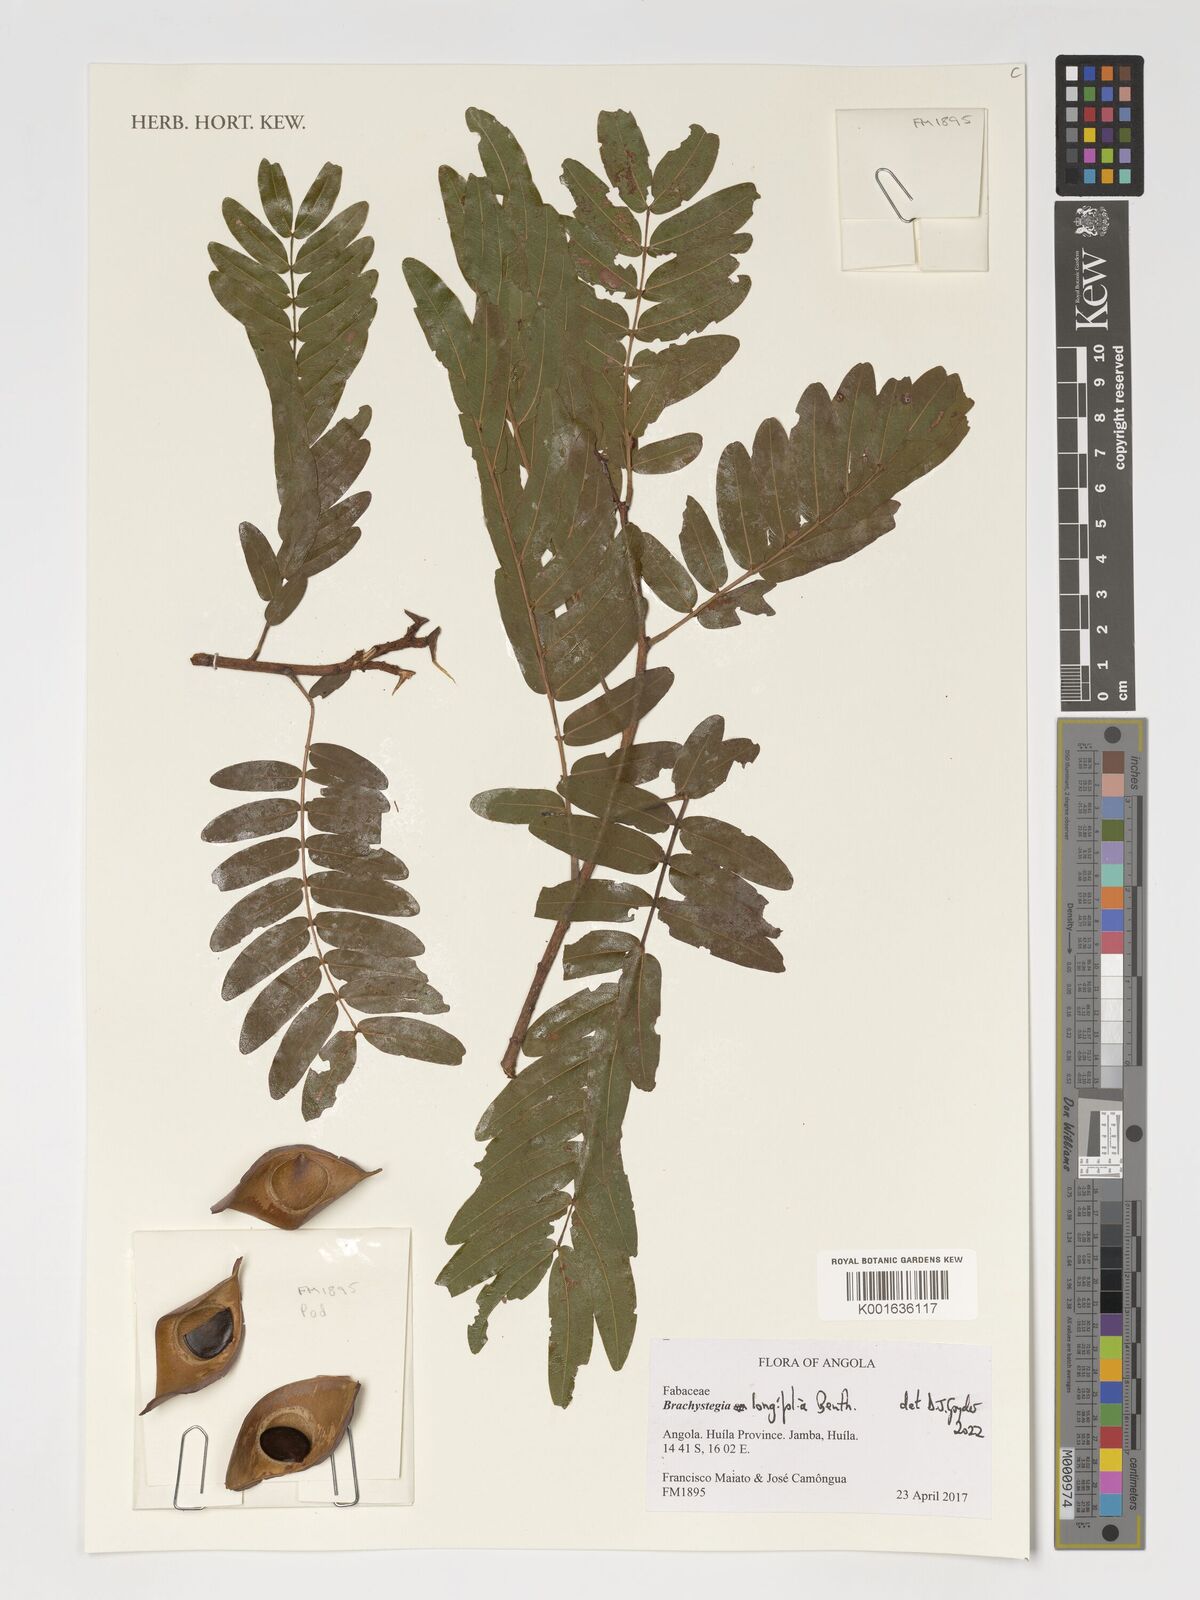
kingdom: Plantae
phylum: Tracheophyta
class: Magnoliopsida
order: Fabales
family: Fabaceae
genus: Brachystegia
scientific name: Brachystegia longifolia
